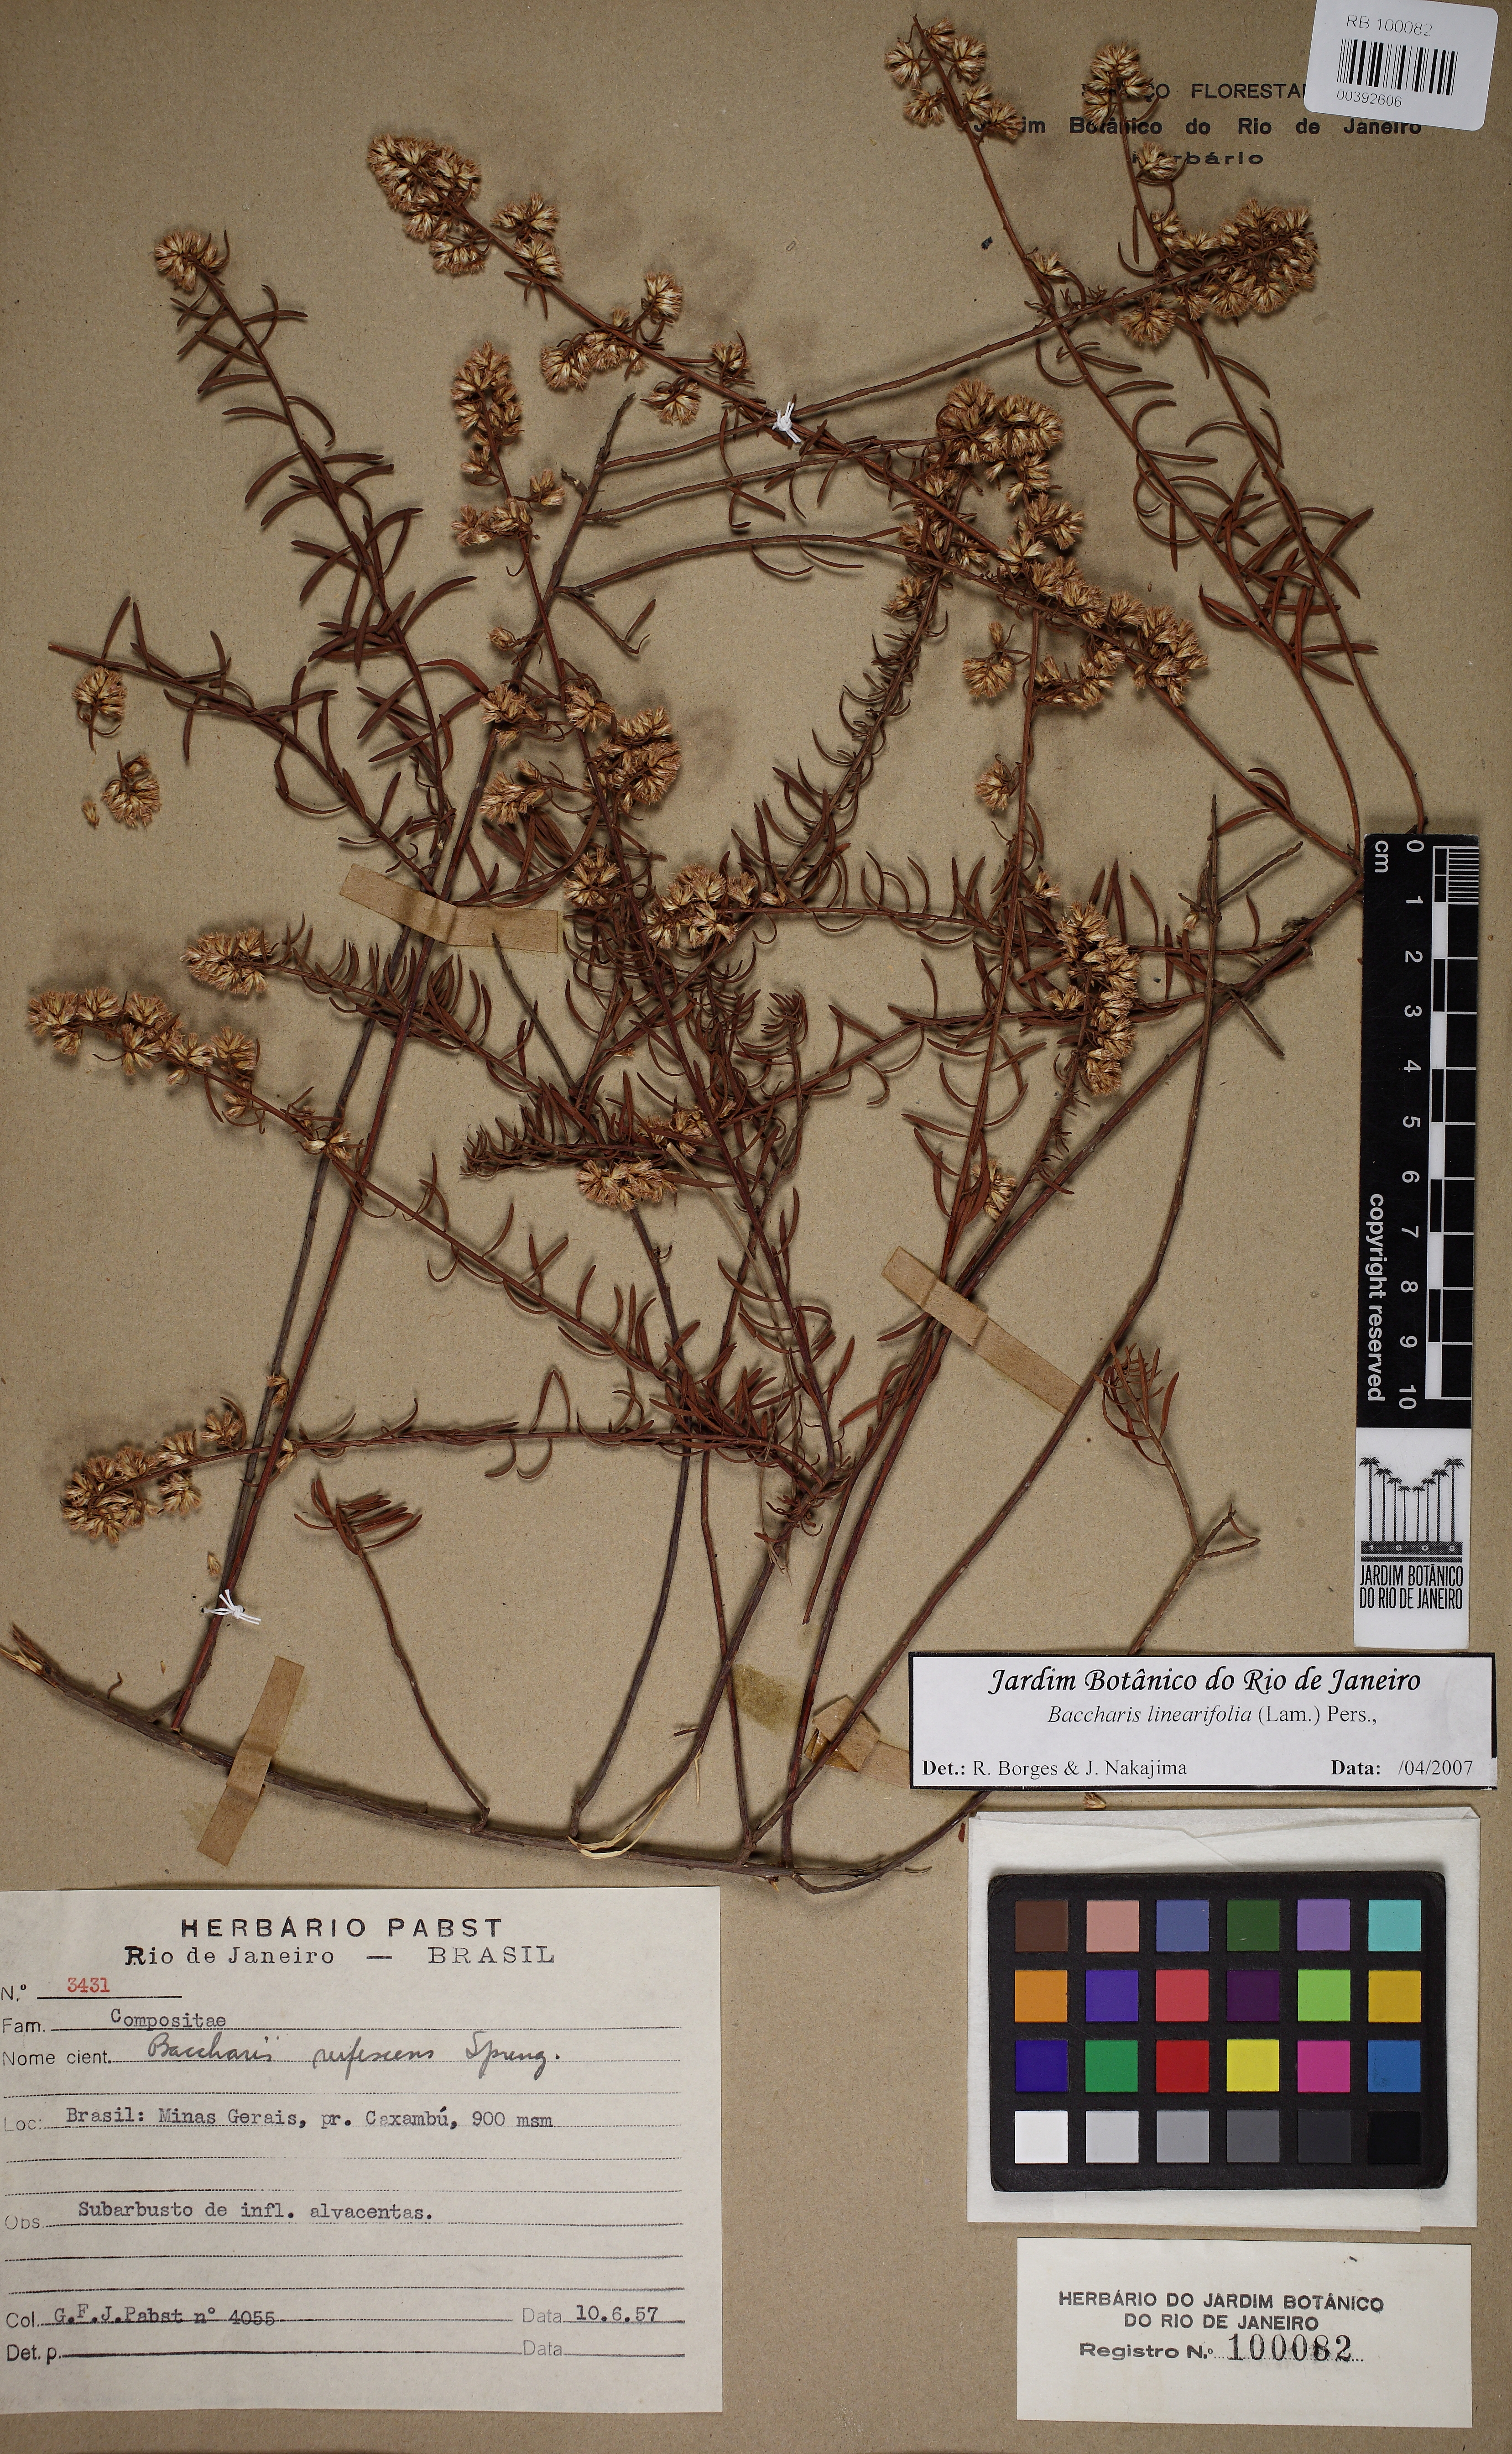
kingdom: Plantae
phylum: Tracheophyta
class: Magnoliopsida
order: Asterales
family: Asteraceae
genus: Baccharis
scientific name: Baccharis linearifolia
